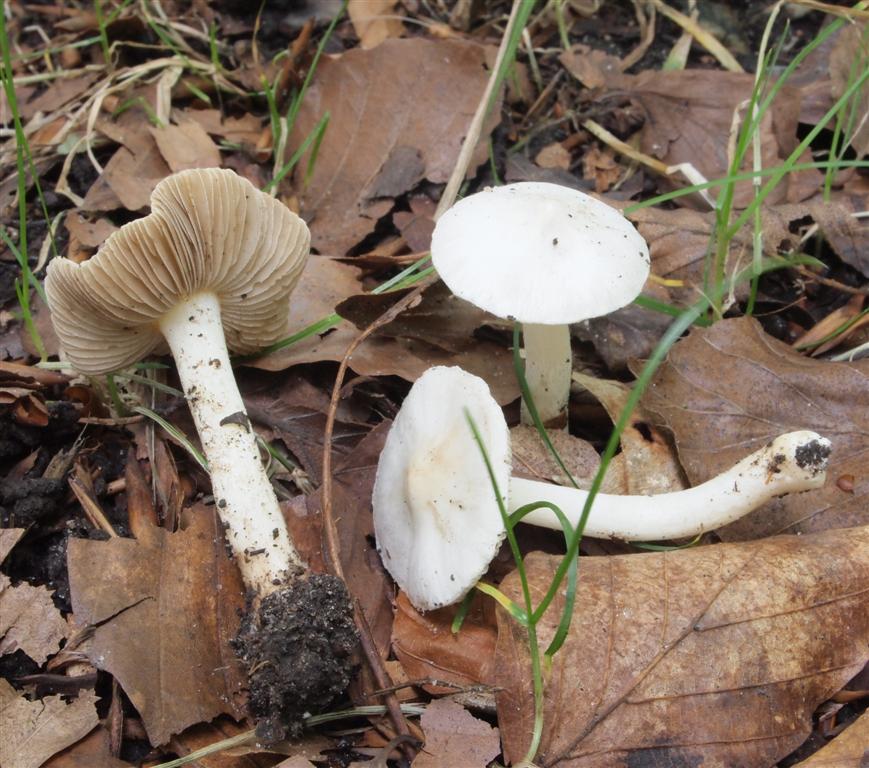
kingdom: Fungi
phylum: Basidiomycota
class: Agaricomycetes
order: Agaricales
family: Inocybaceae
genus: Inocybe
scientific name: Inocybe
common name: almindelig trævlhat
